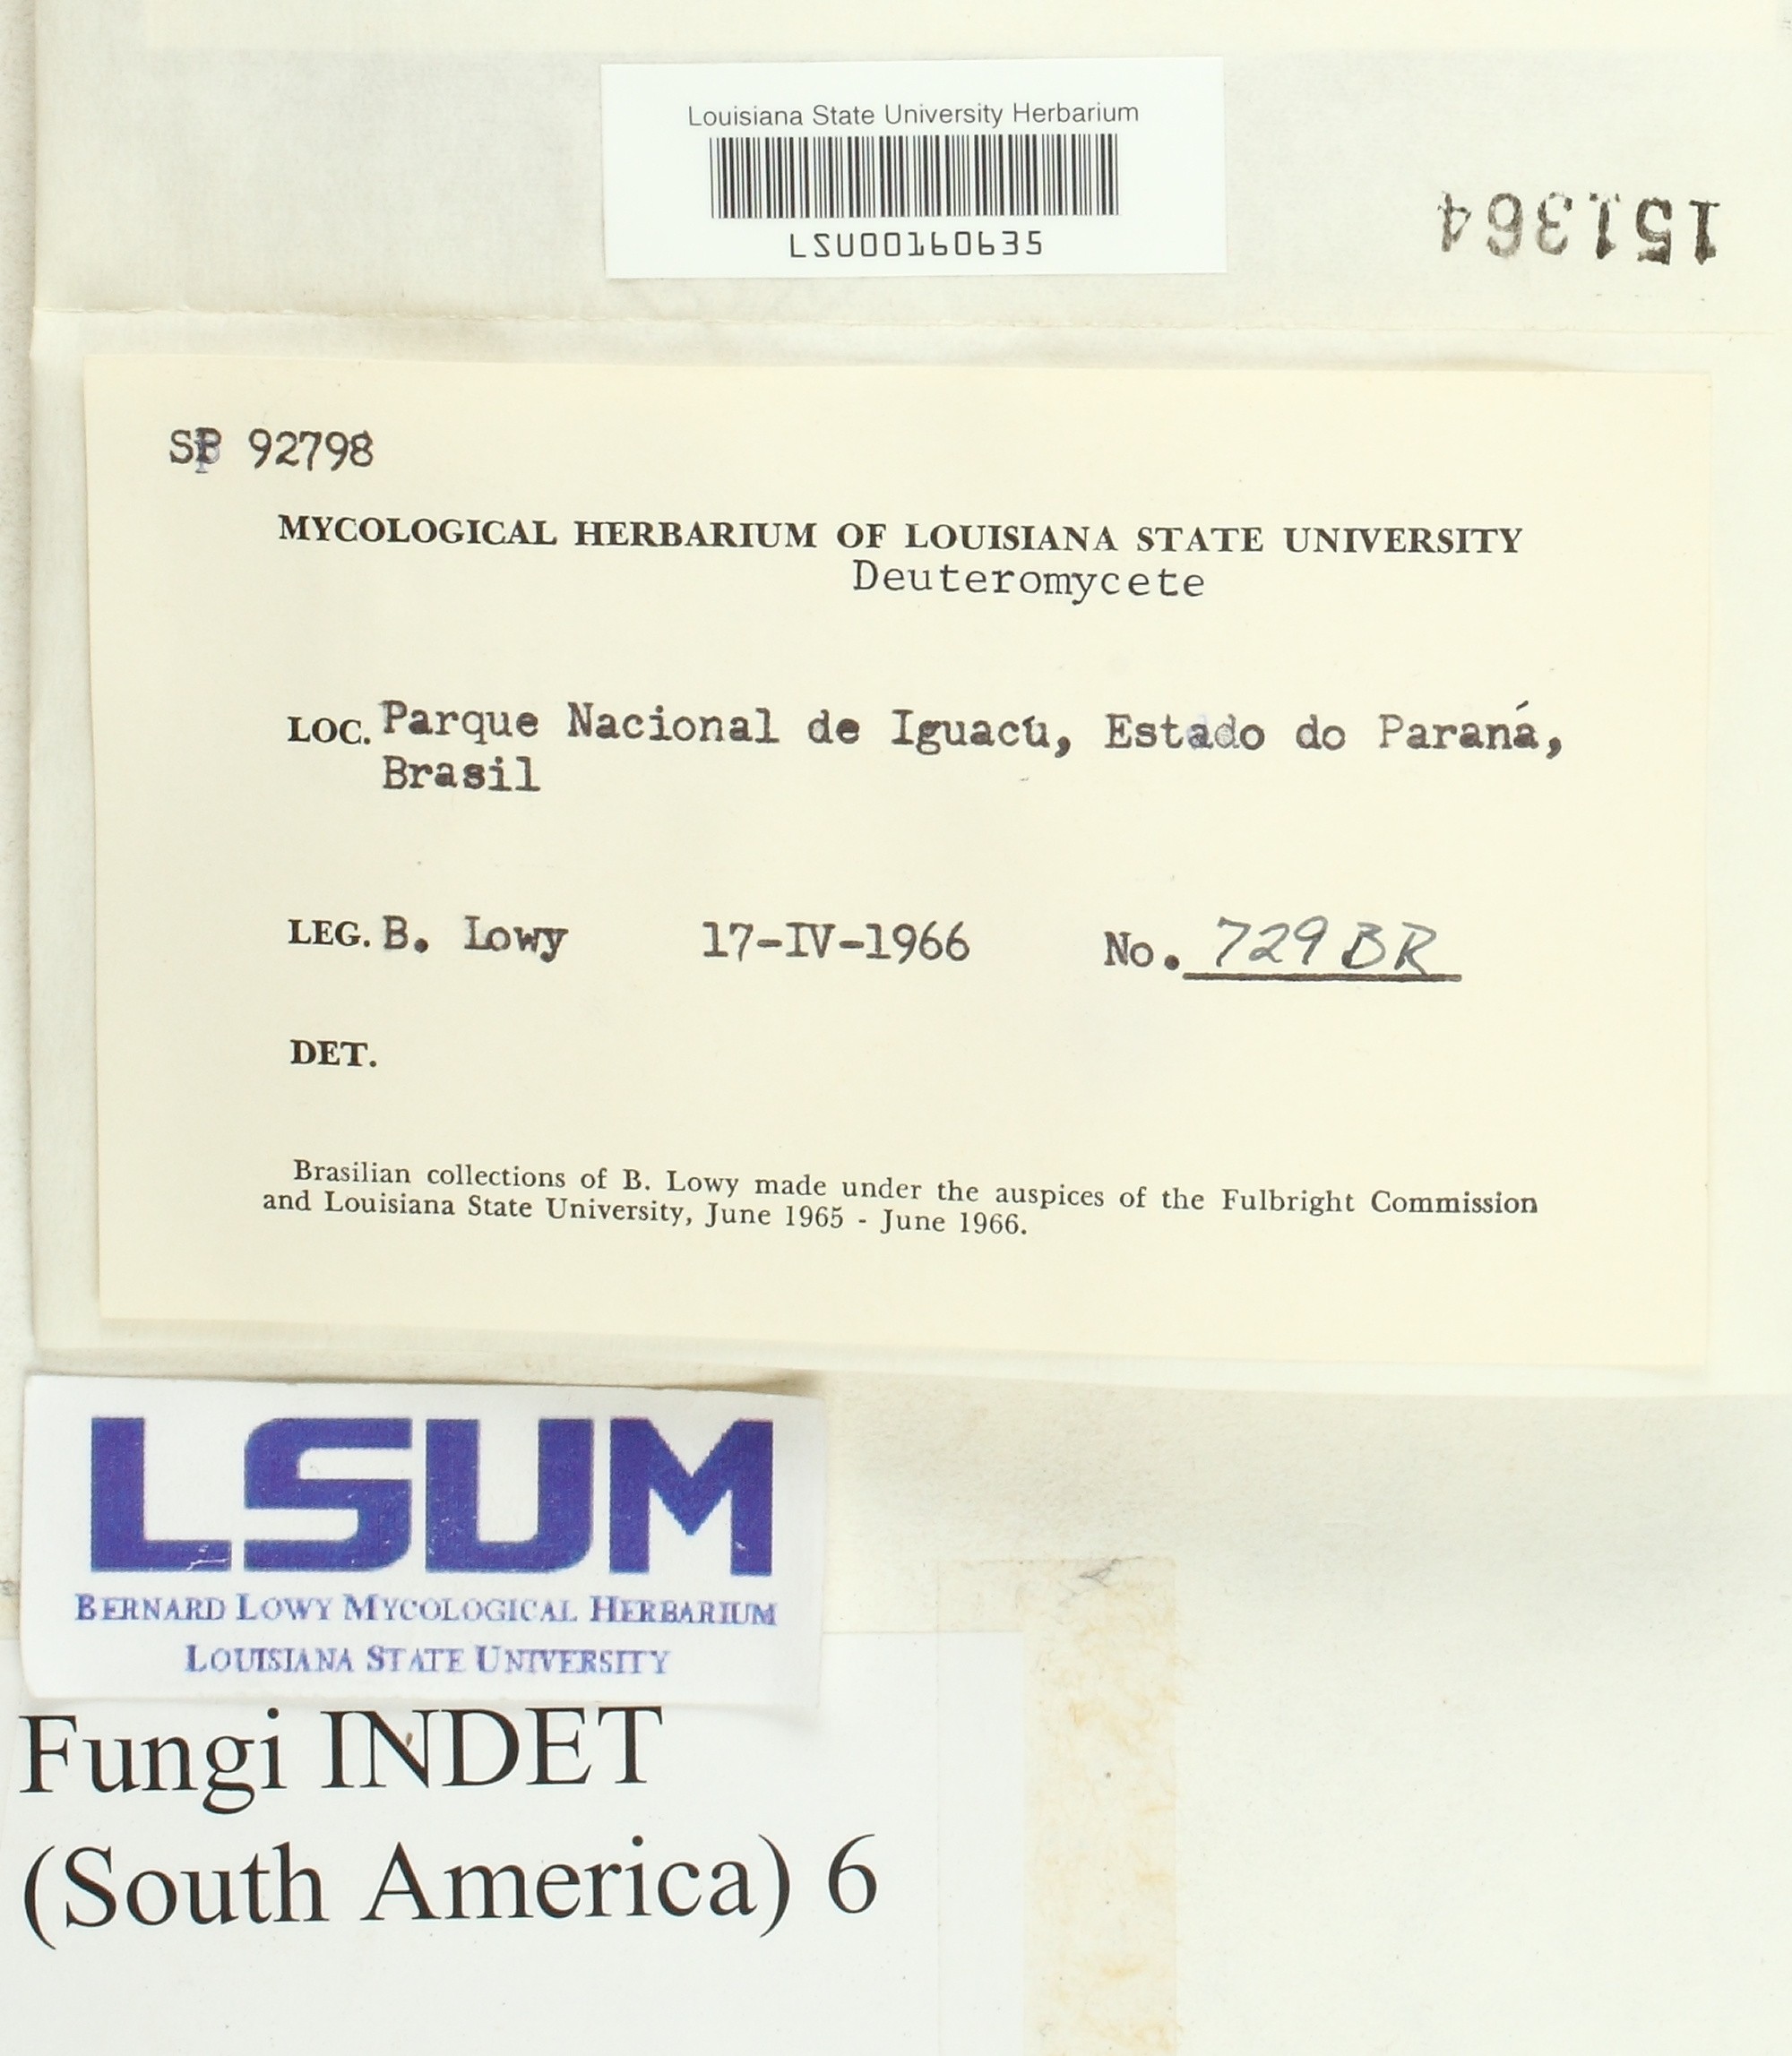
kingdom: Fungi
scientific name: Fungi
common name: Fungi
